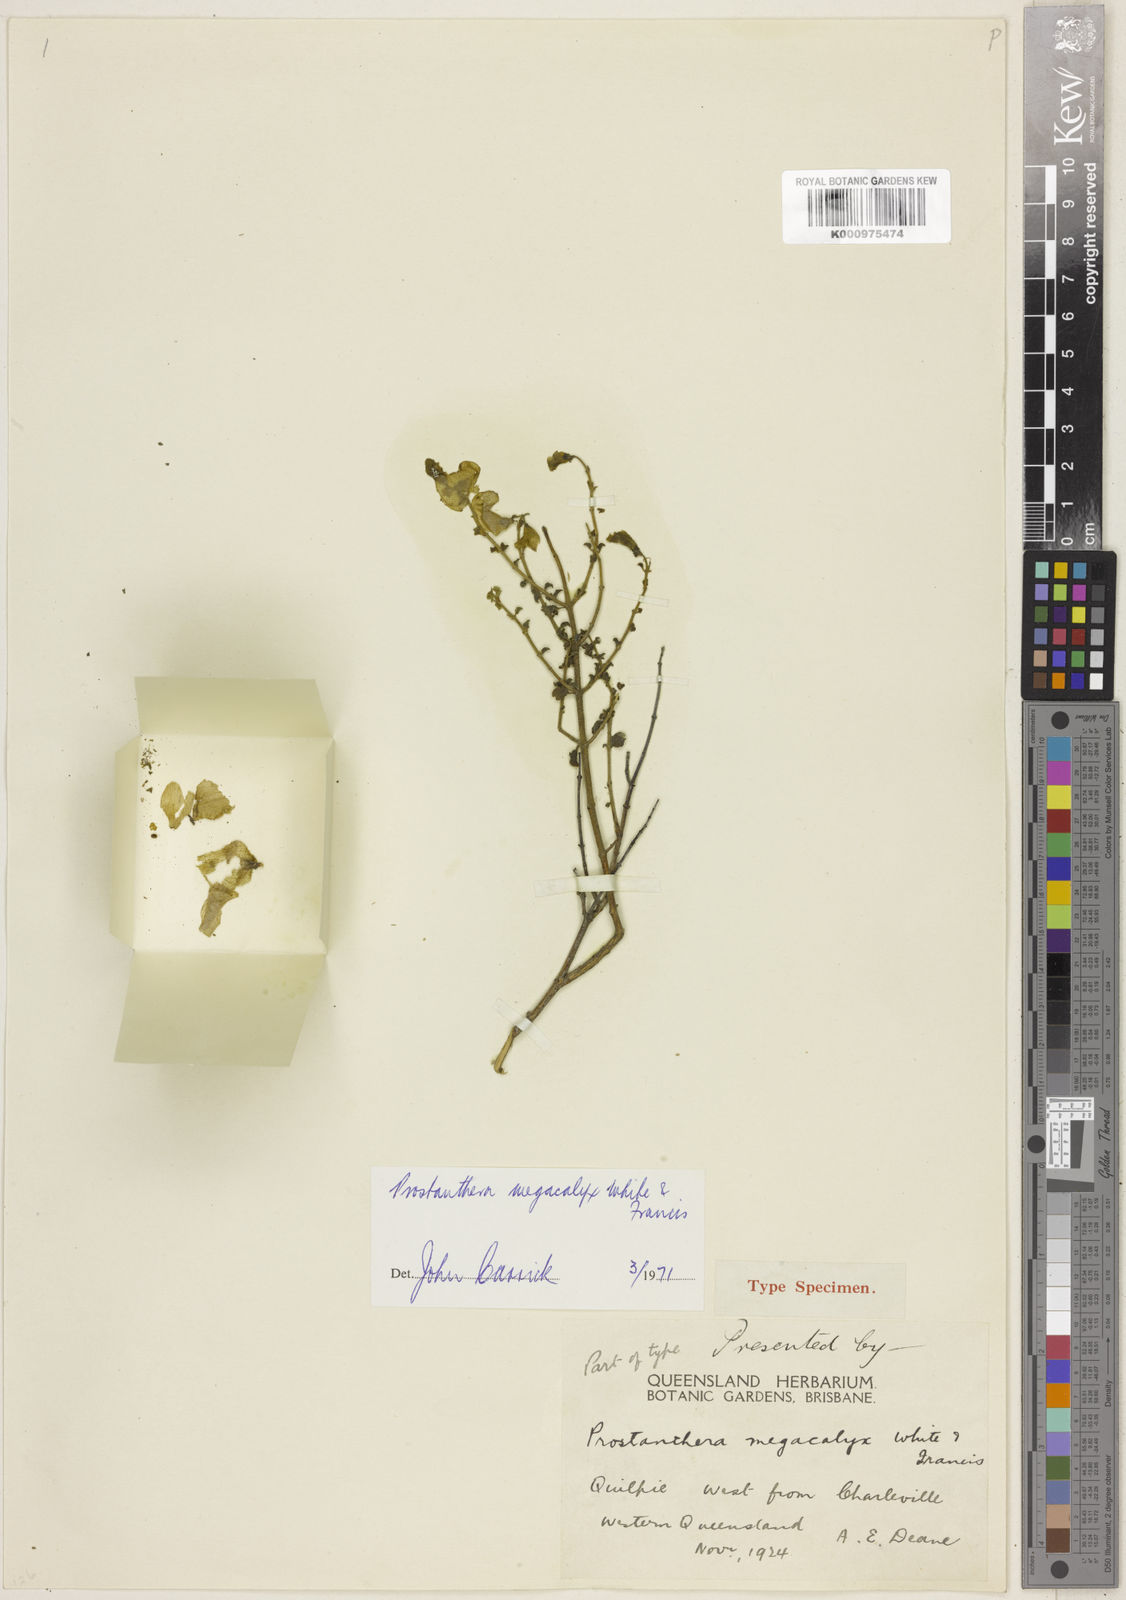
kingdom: Plantae
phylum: Tracheophyta
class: Magnoliopsida
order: Lamiales
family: Lamiaceae
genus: Prostanthera
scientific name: Prostanthera megacalyx
